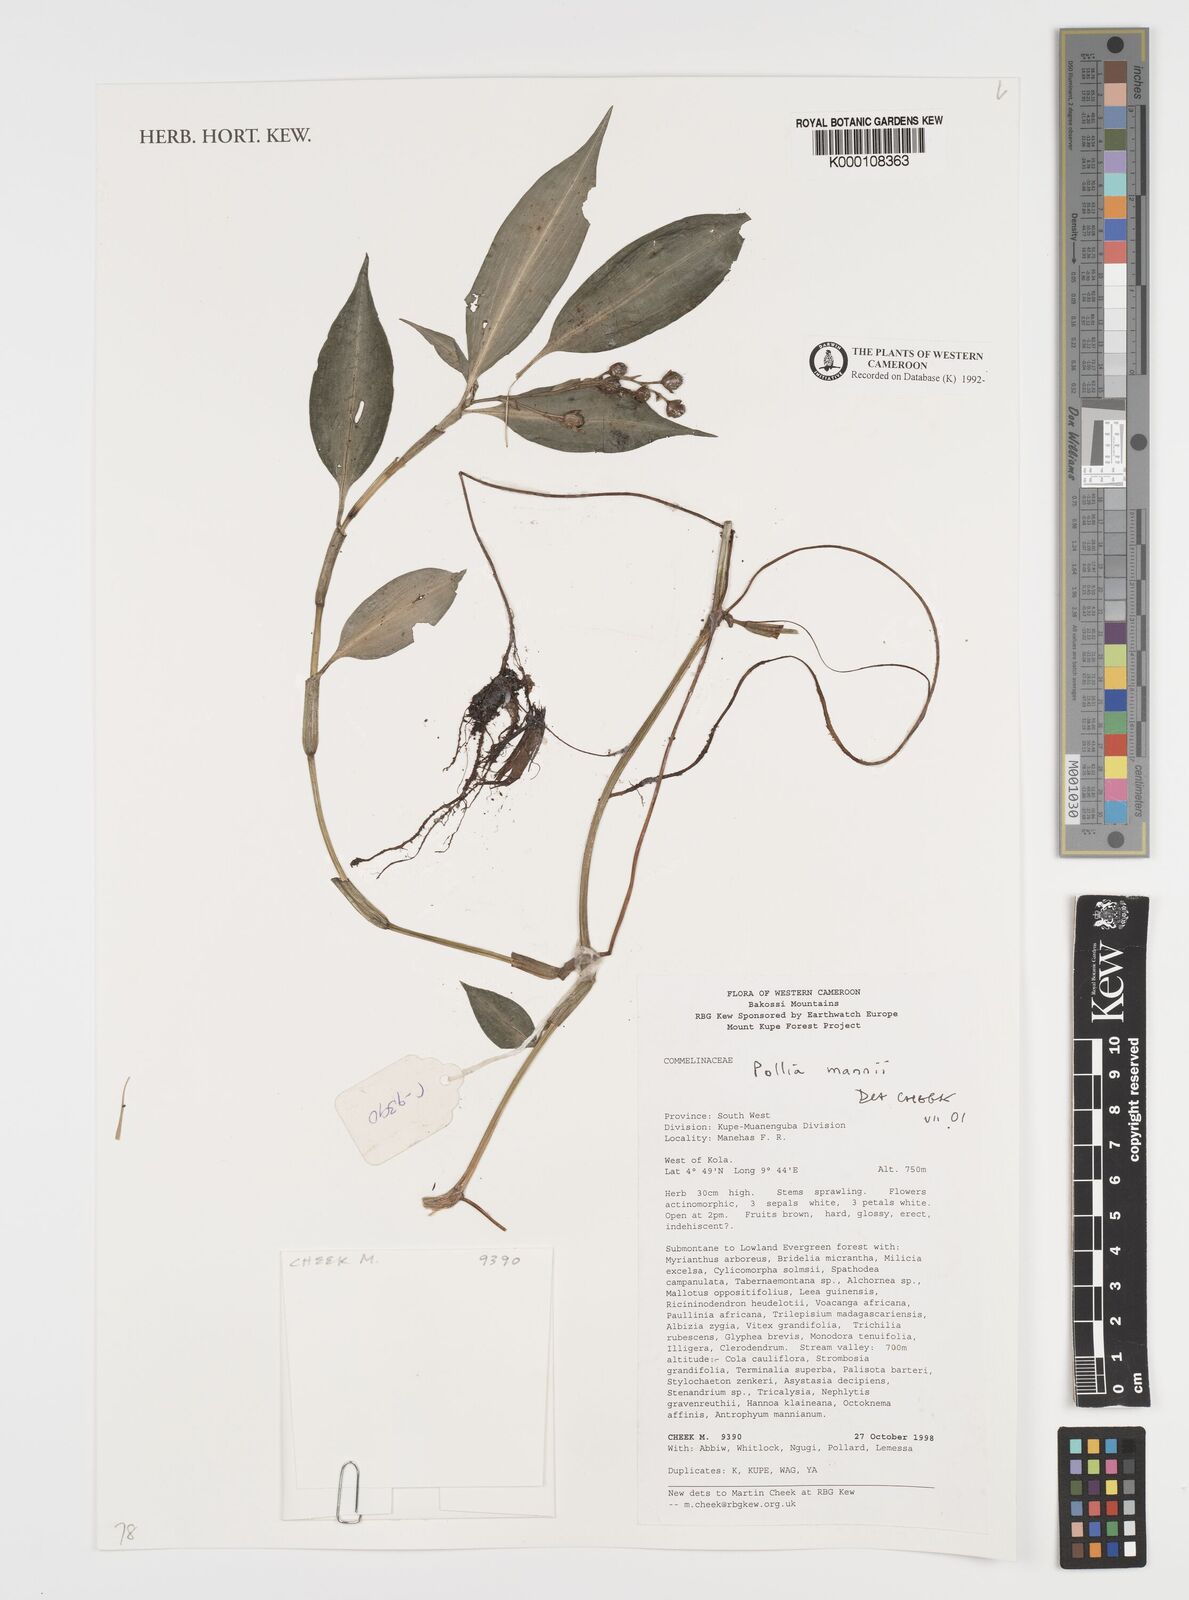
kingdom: Plantae
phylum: Tracheophyta
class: Liliopsida
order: Commelinales
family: Commelinaceae
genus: Pollia
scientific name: Pollia mannii
